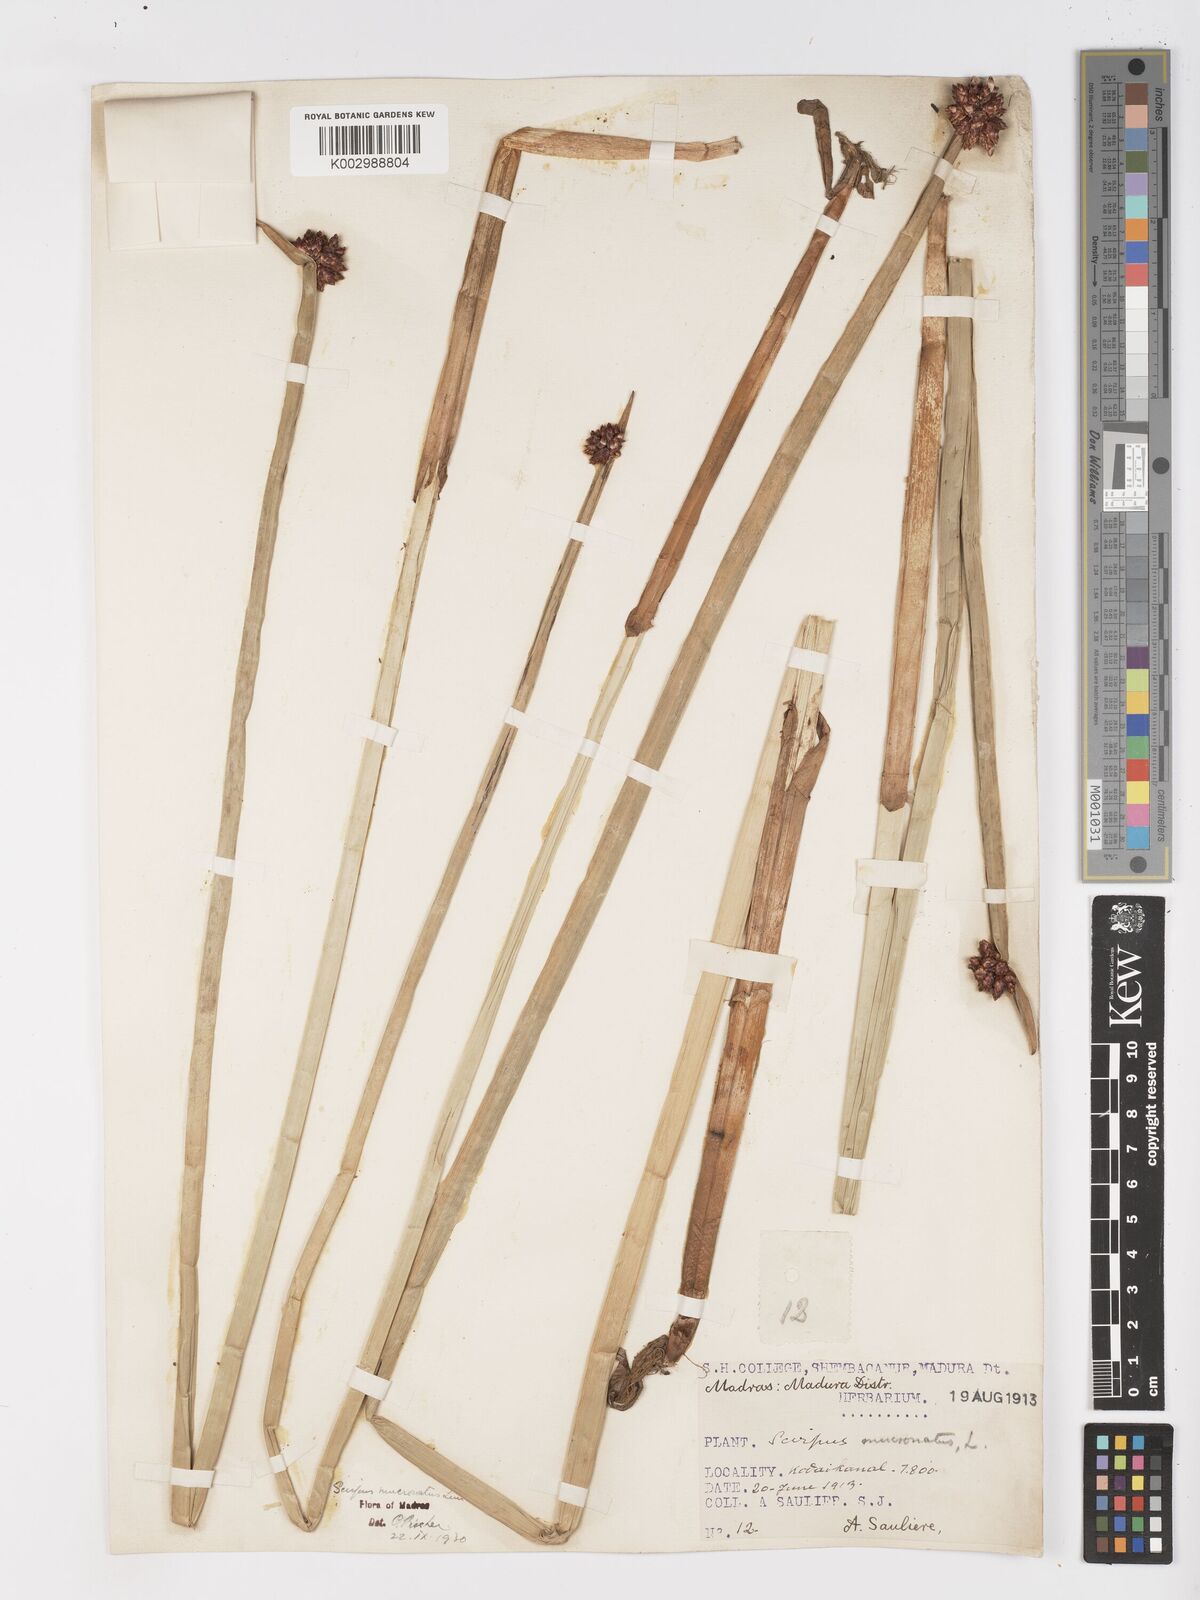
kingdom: Plantae
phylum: Tracheophyta
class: Liliopsida
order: Poales
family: Cyperaceae
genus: Schoenoplectiella
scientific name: Schoenoplectiella mucronata
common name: Bog bulrush
